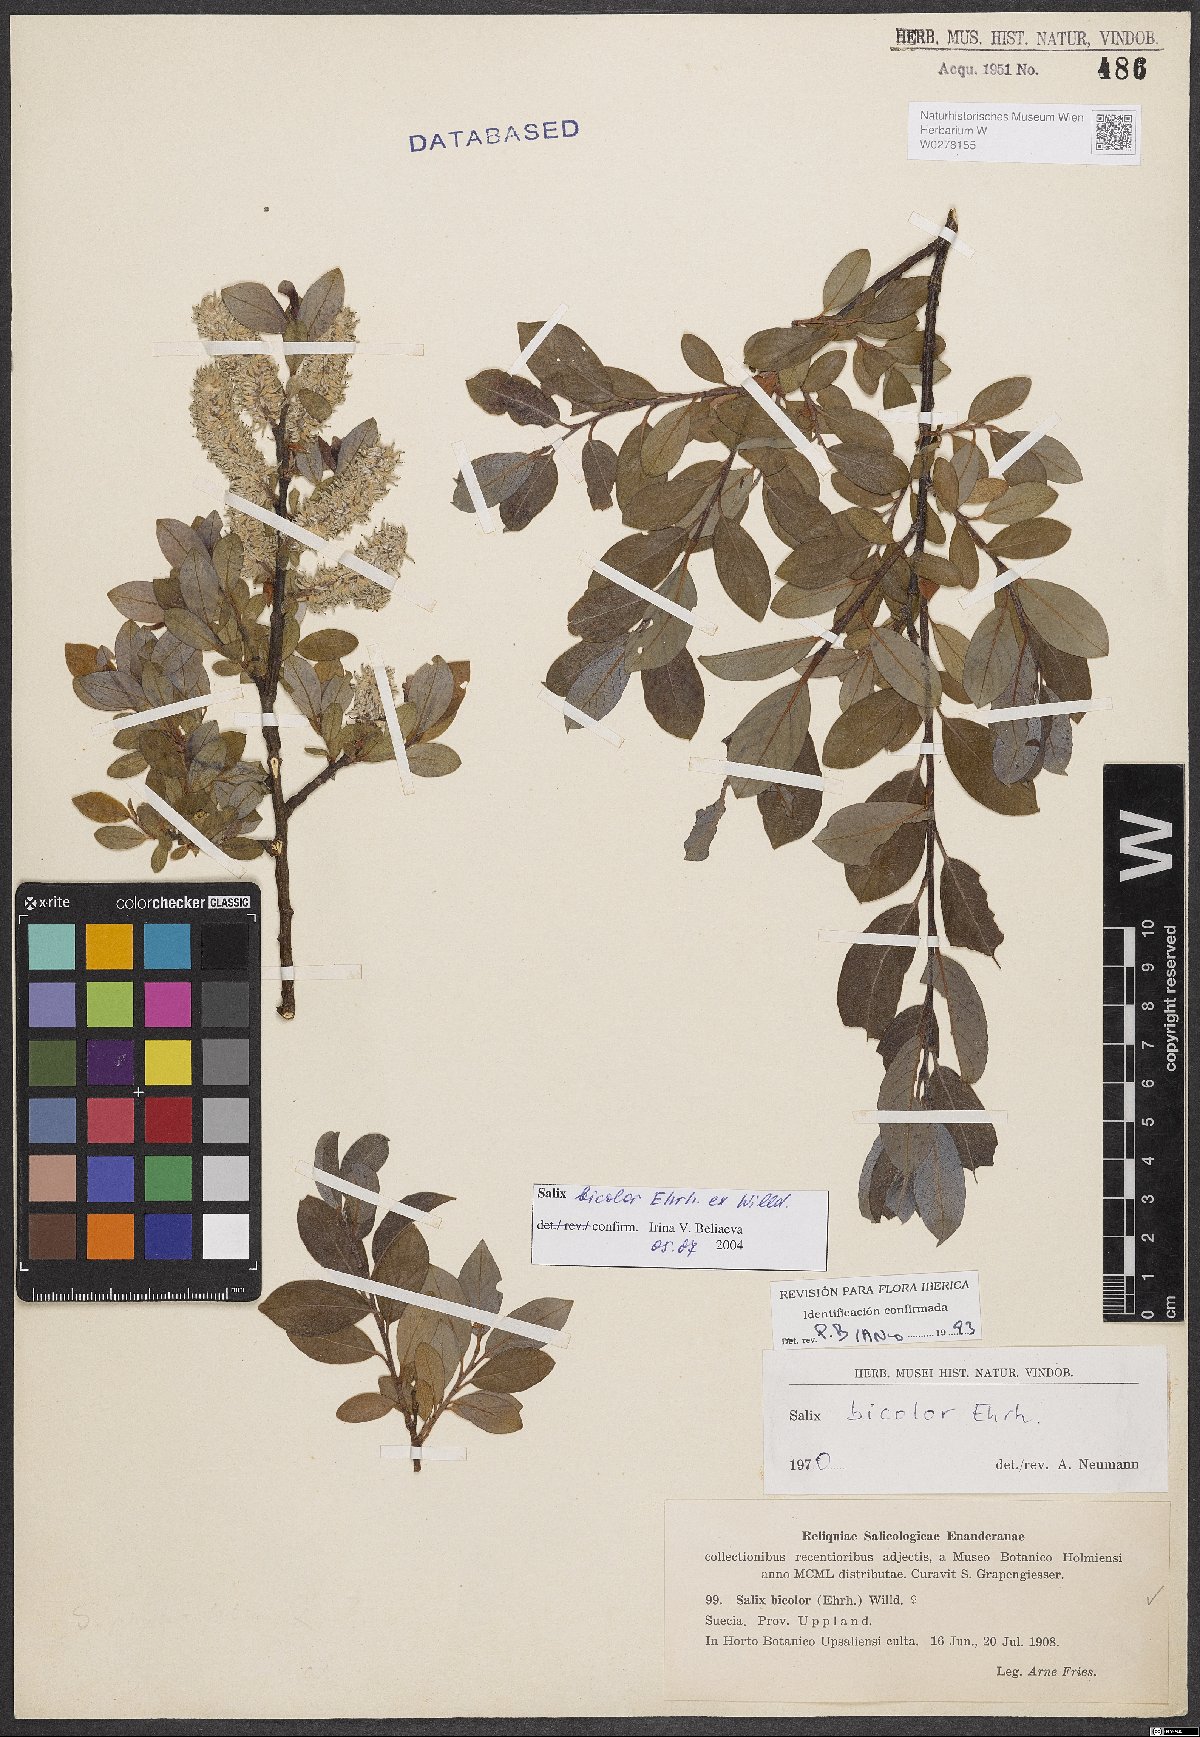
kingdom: Plantae
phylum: Tracheophyta
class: Magnoliopsida
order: Malpighiales
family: Salicaceae
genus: Salix
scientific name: Salix bicolor
